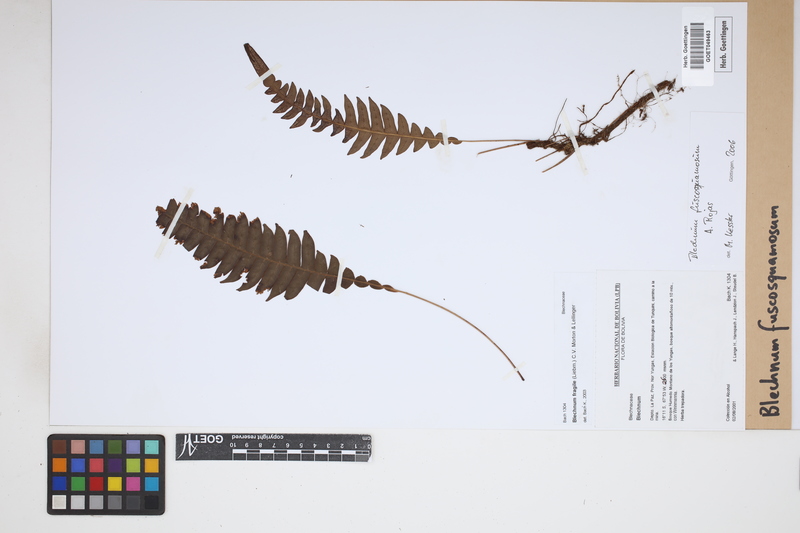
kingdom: Plantae
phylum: Tracheophyta
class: Polypodiopsida
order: Polypodiales
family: Blechnaceae
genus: Lomaridium
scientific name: Lomaridium fuscosquamosum
